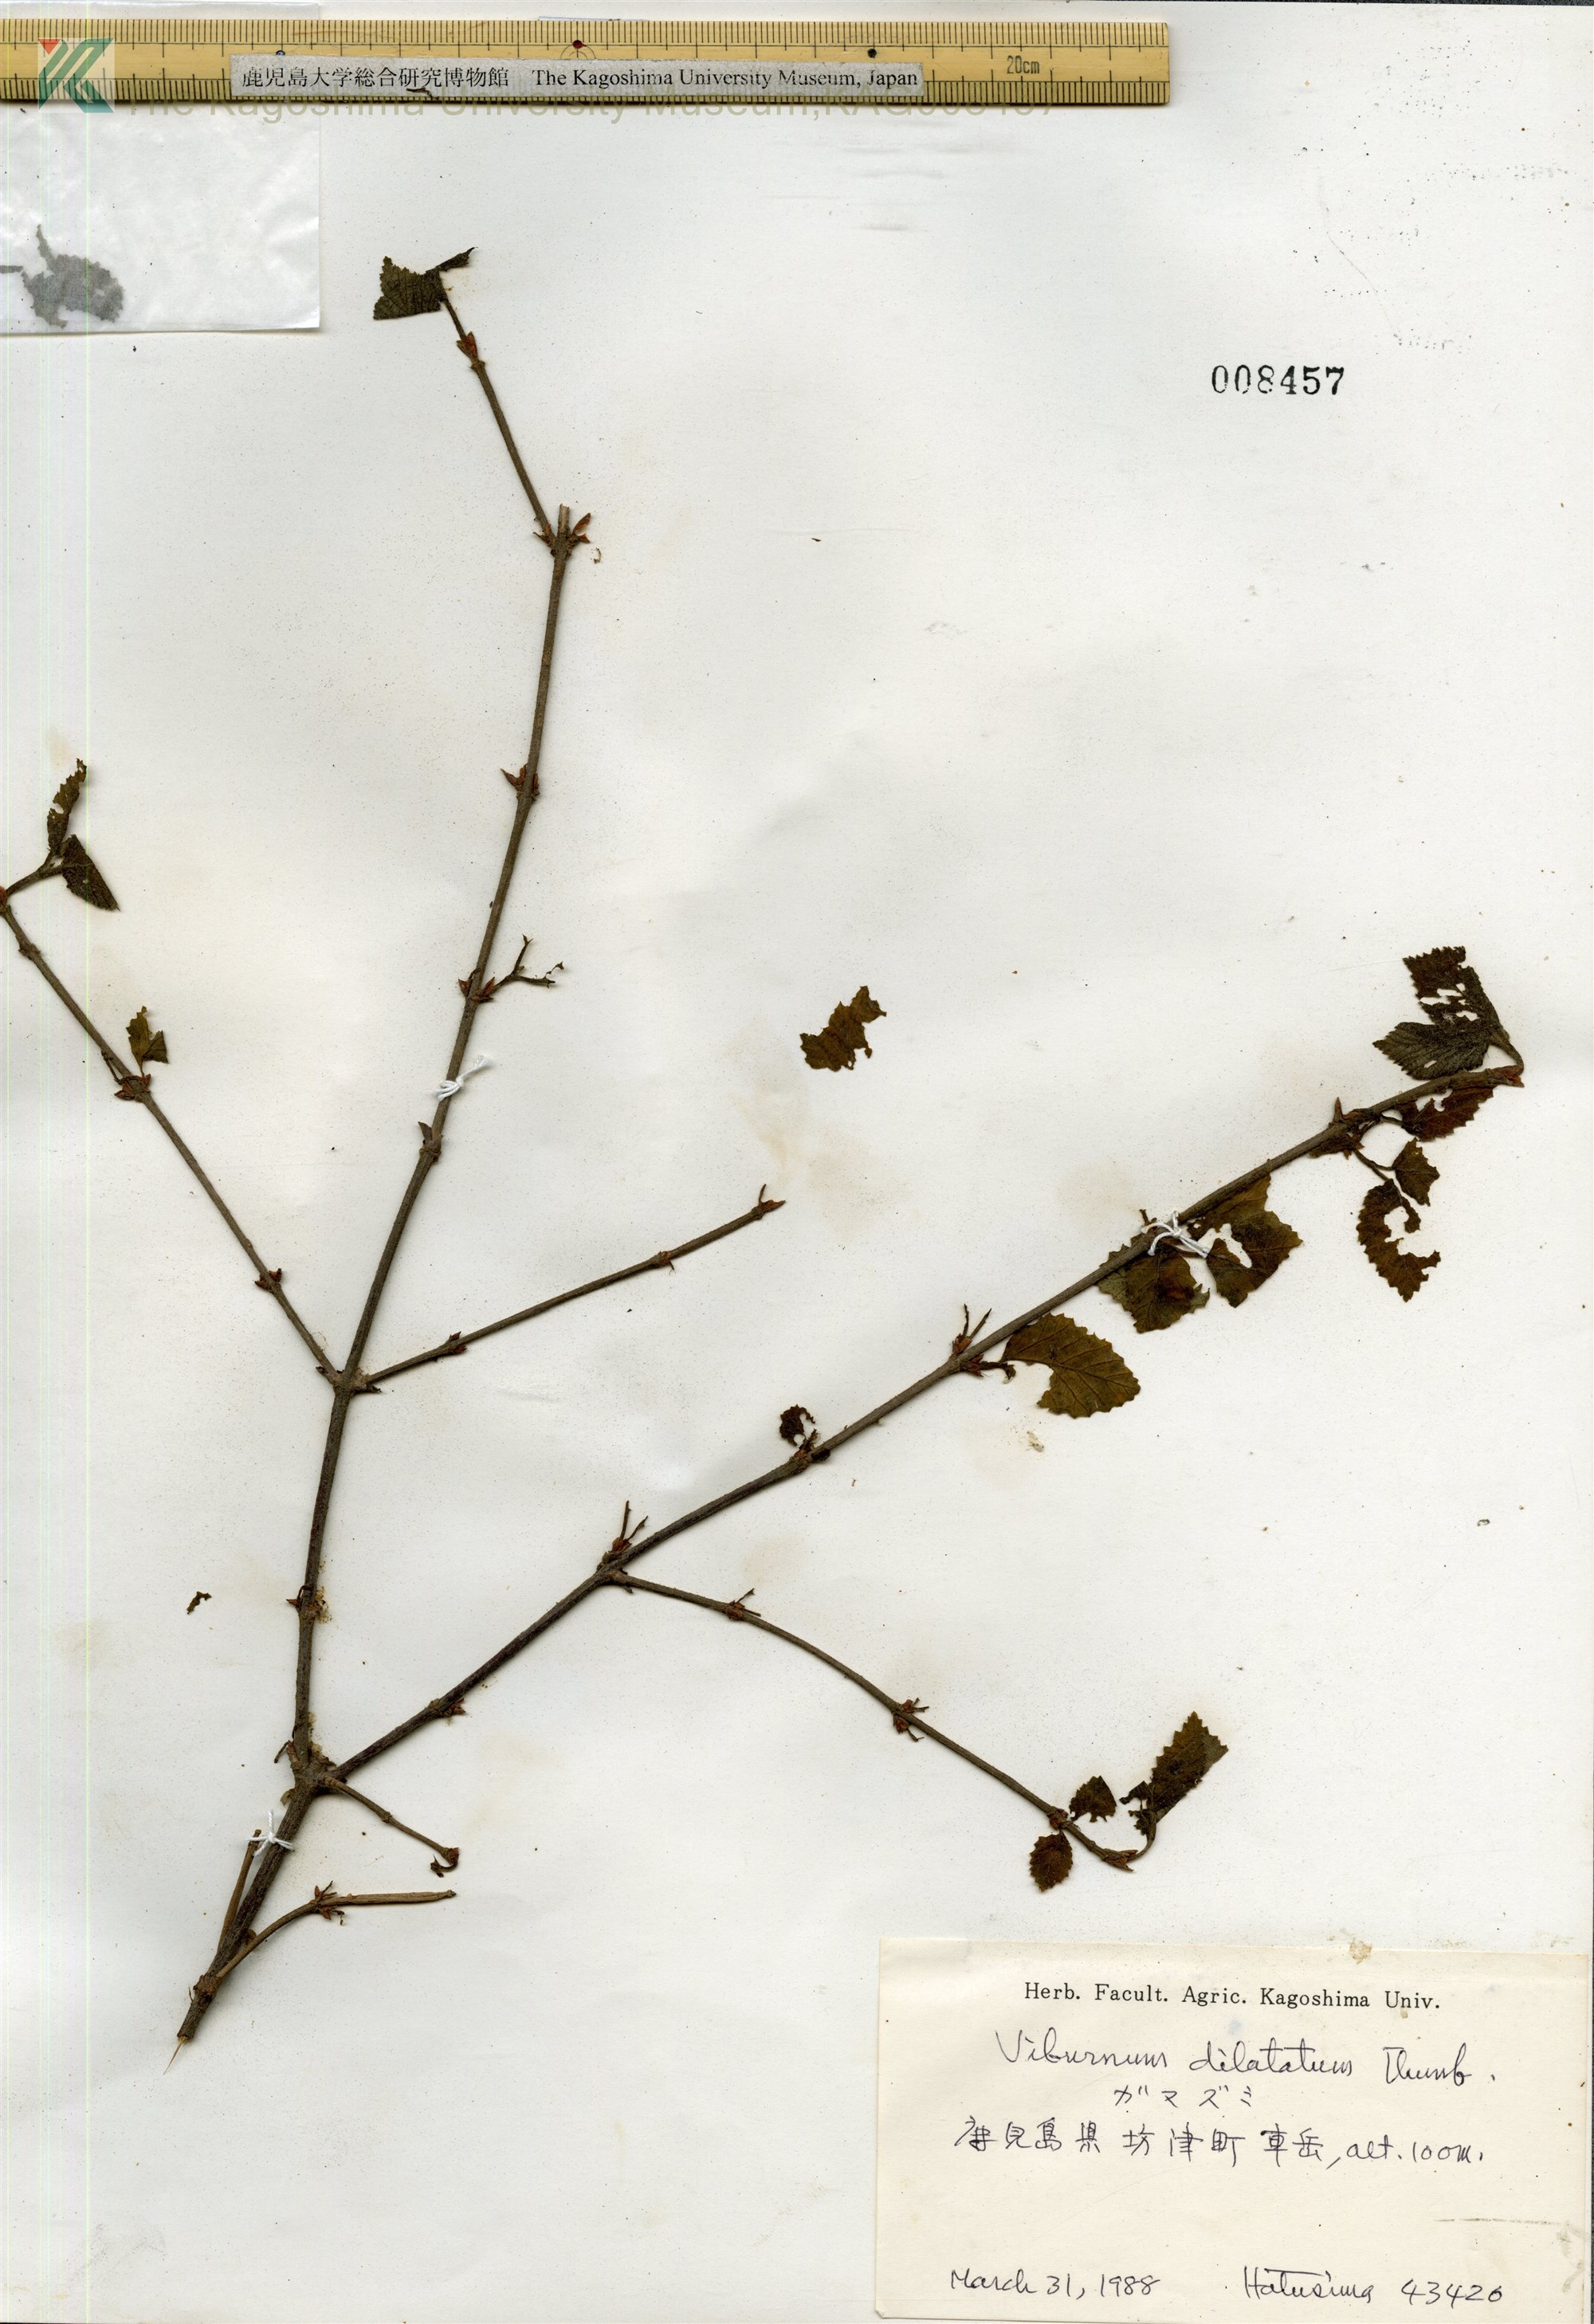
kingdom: Plantae
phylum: Tracheophyta
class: Magnoliopsida
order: Dipsacales
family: Viburnaceae
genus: Viburnum
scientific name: Viburnum dilatatum
